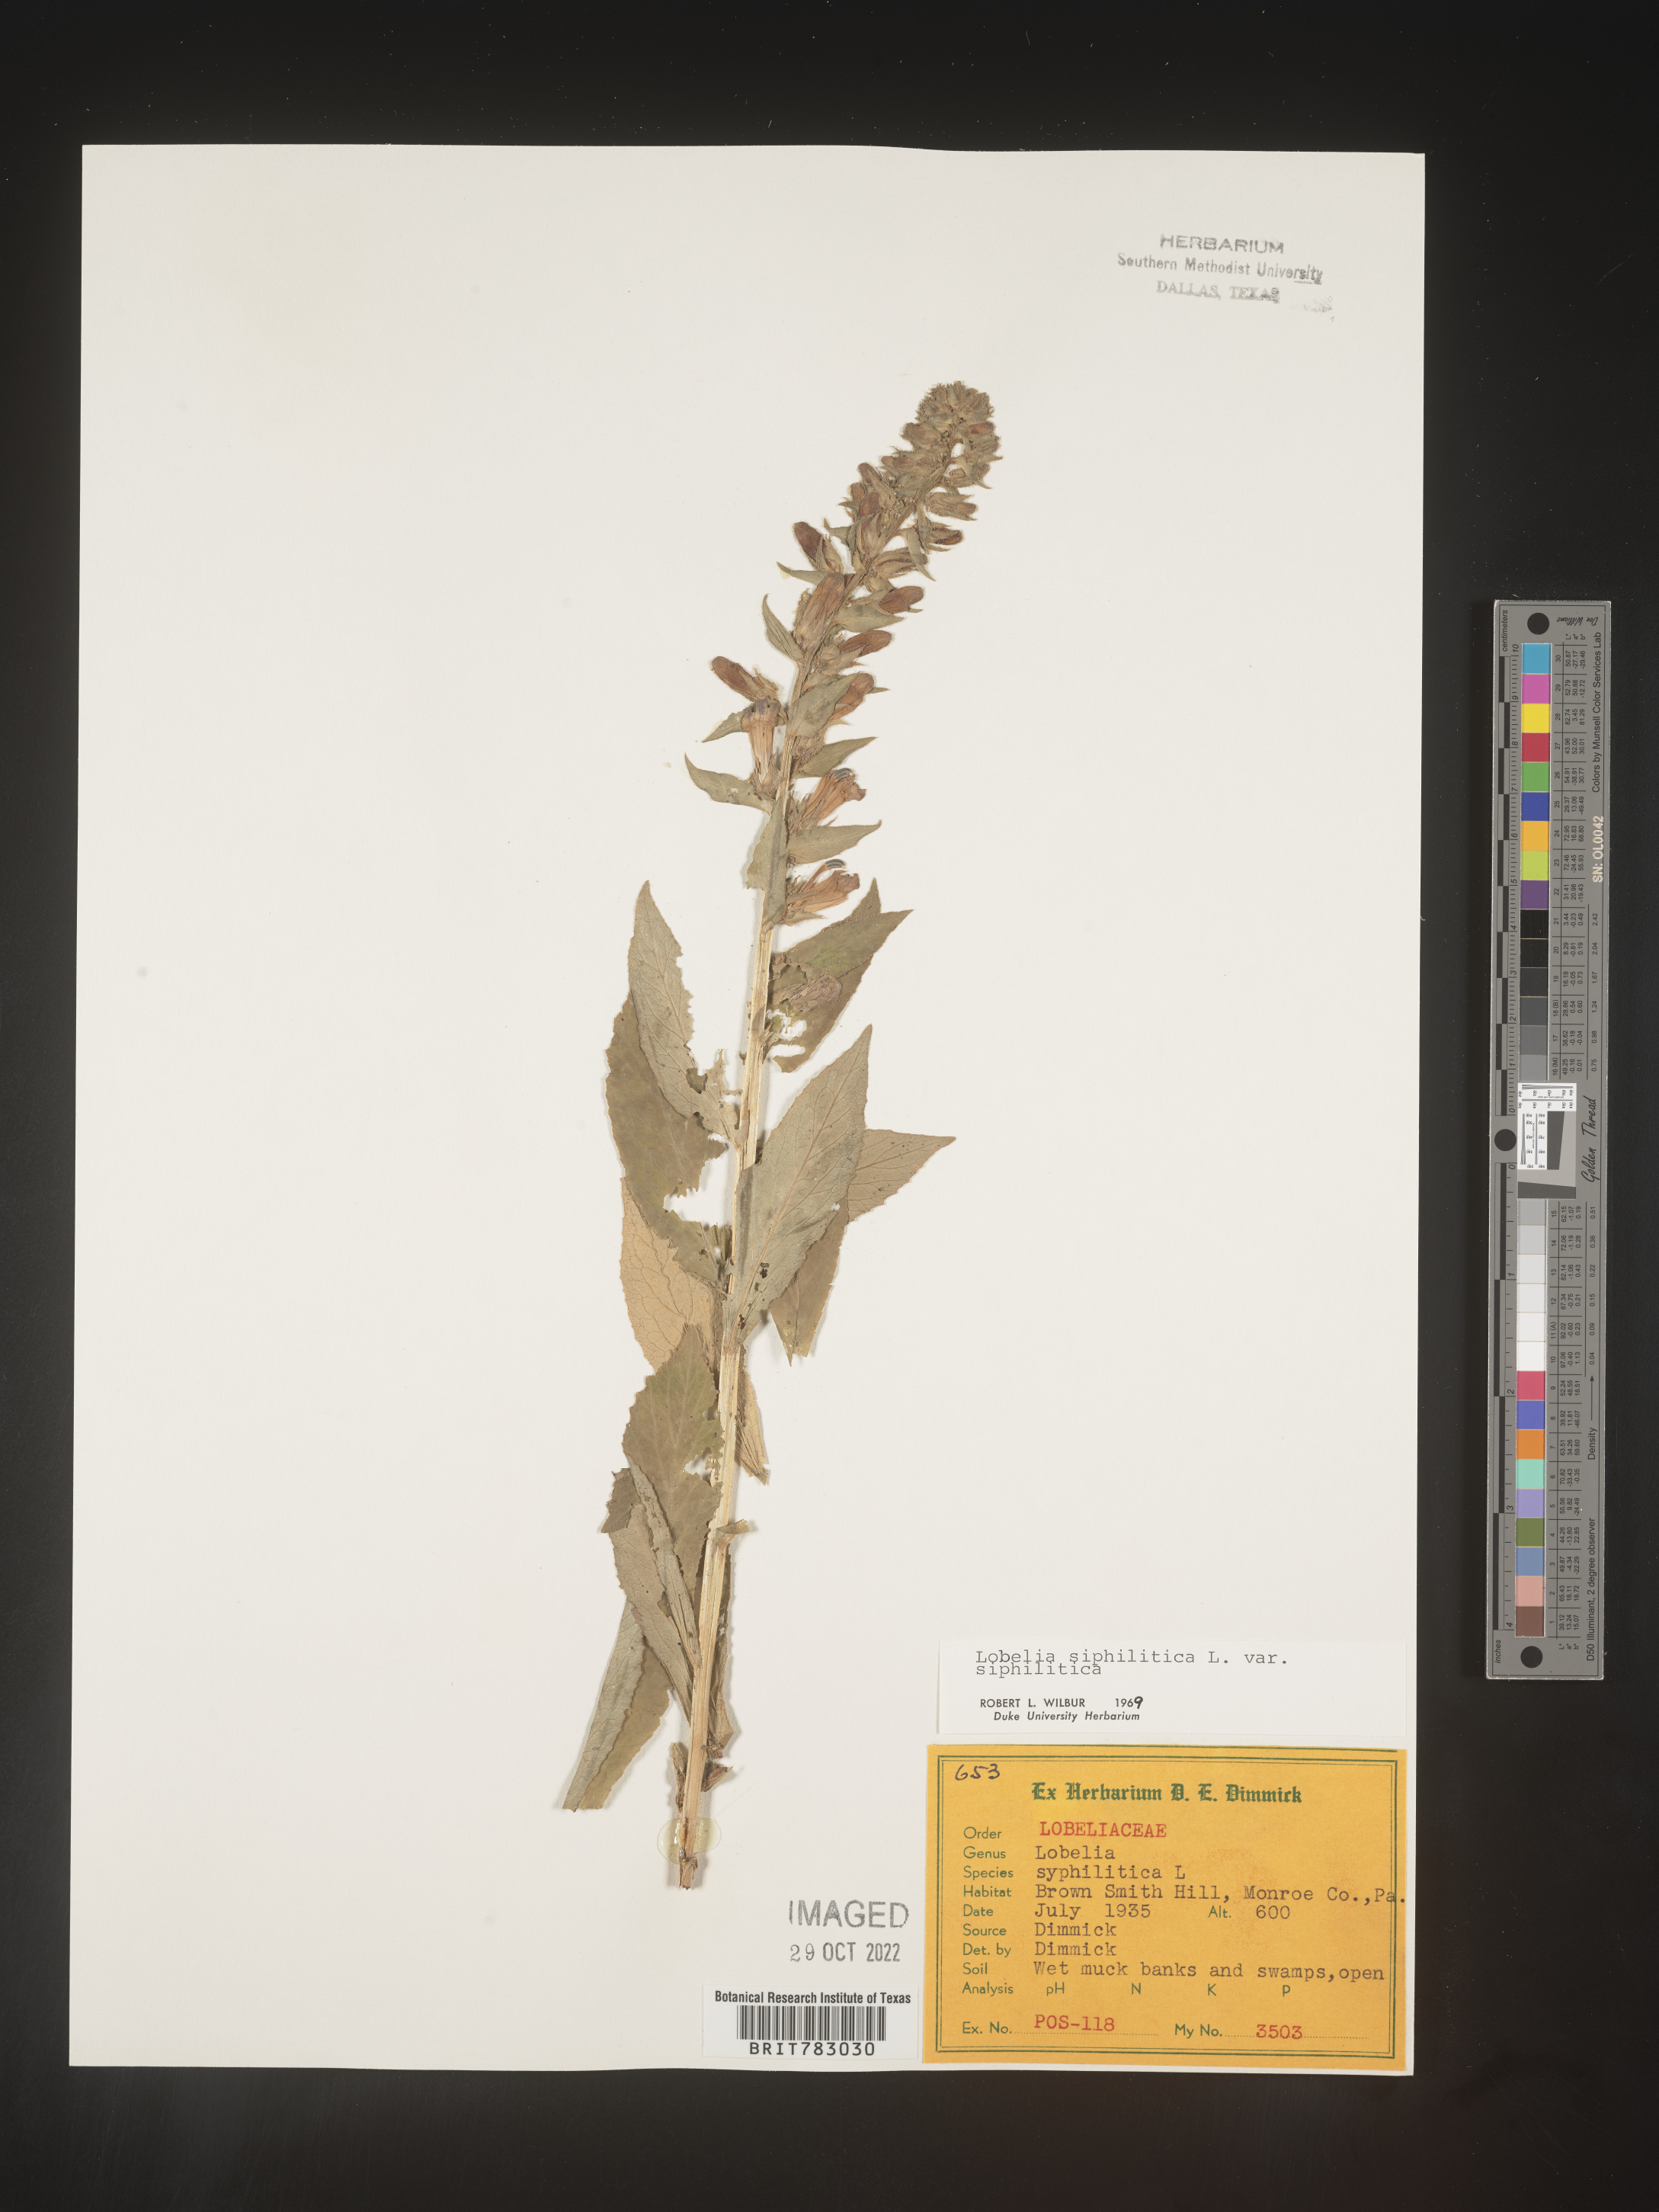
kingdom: Plantae
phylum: Tracheophyta
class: Magnoliopsida
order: Asterales
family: Campanulaceae
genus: Lobelia
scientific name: Lobelia siphilitica
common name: Great lobelia
